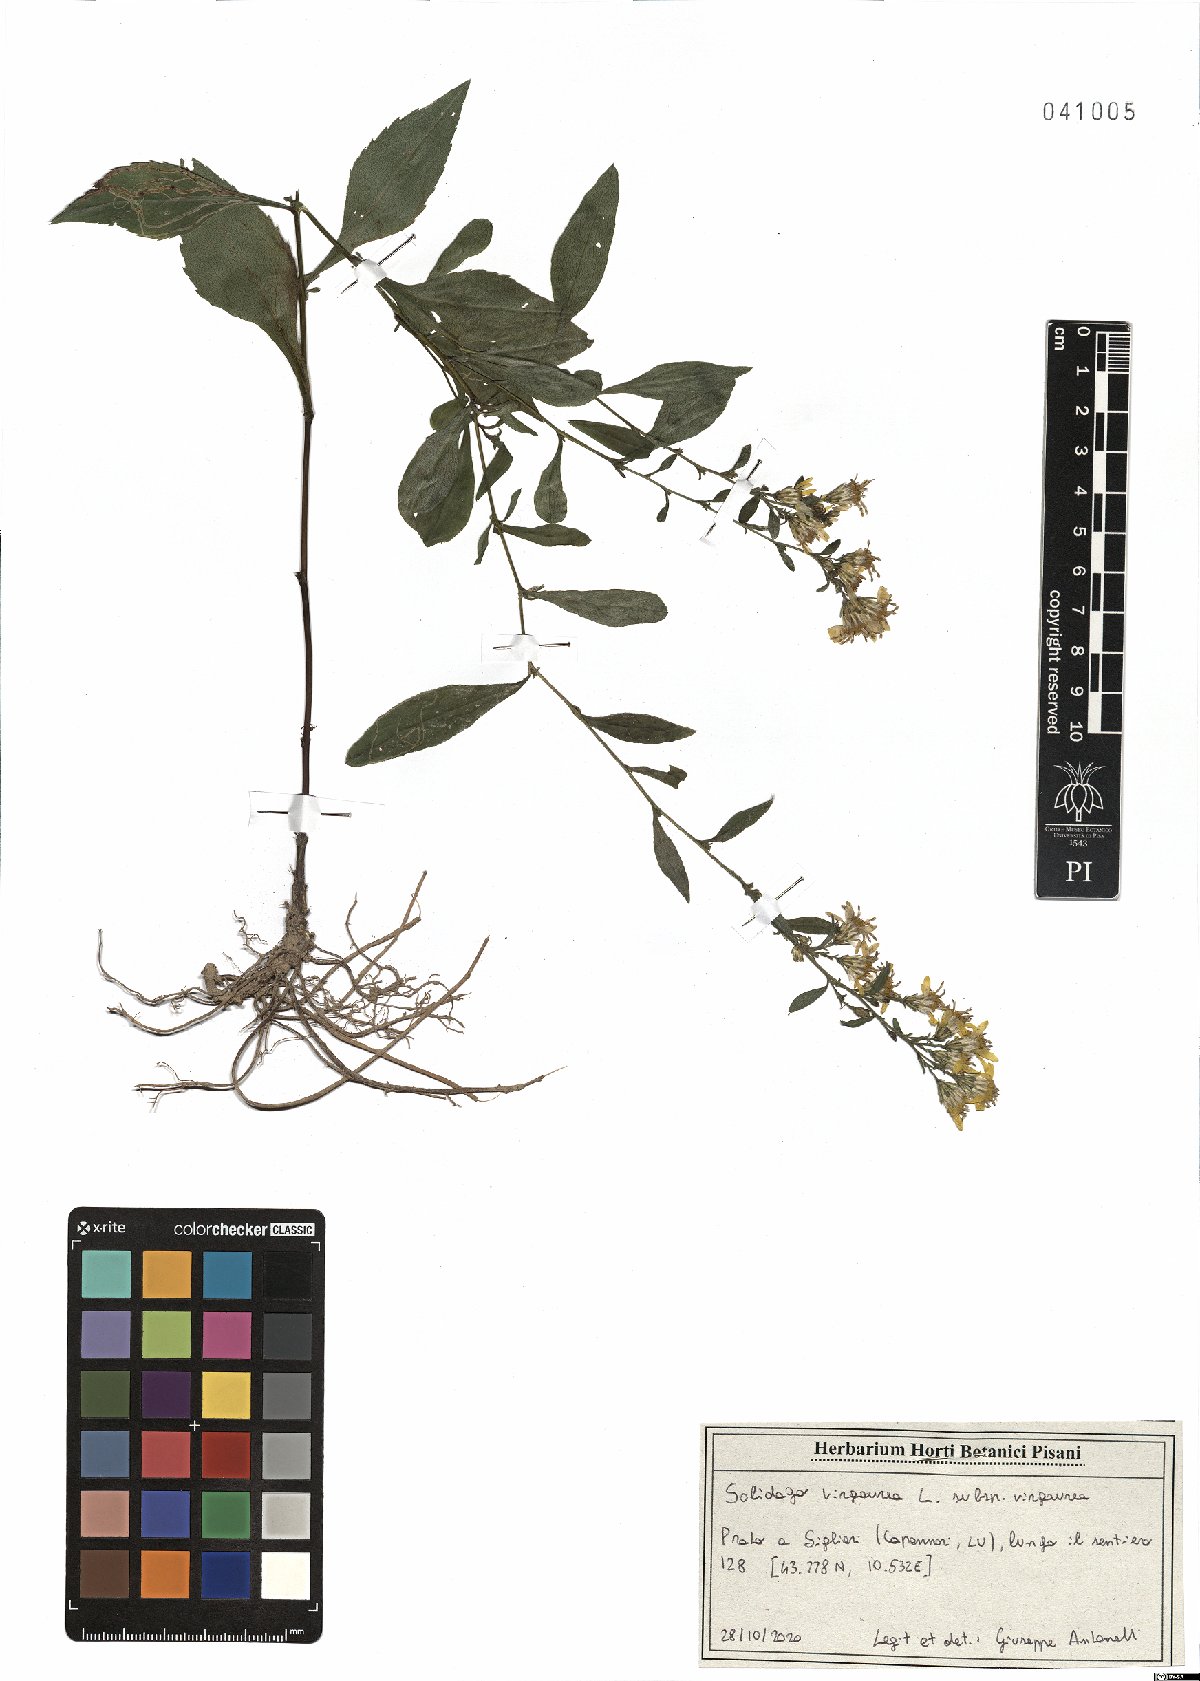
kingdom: Plantae
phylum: Tracheophyta
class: Magnoliopsida
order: Asterales
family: Asteraceae
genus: Solidago
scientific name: Solidago virgaurea
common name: Goldenrod
